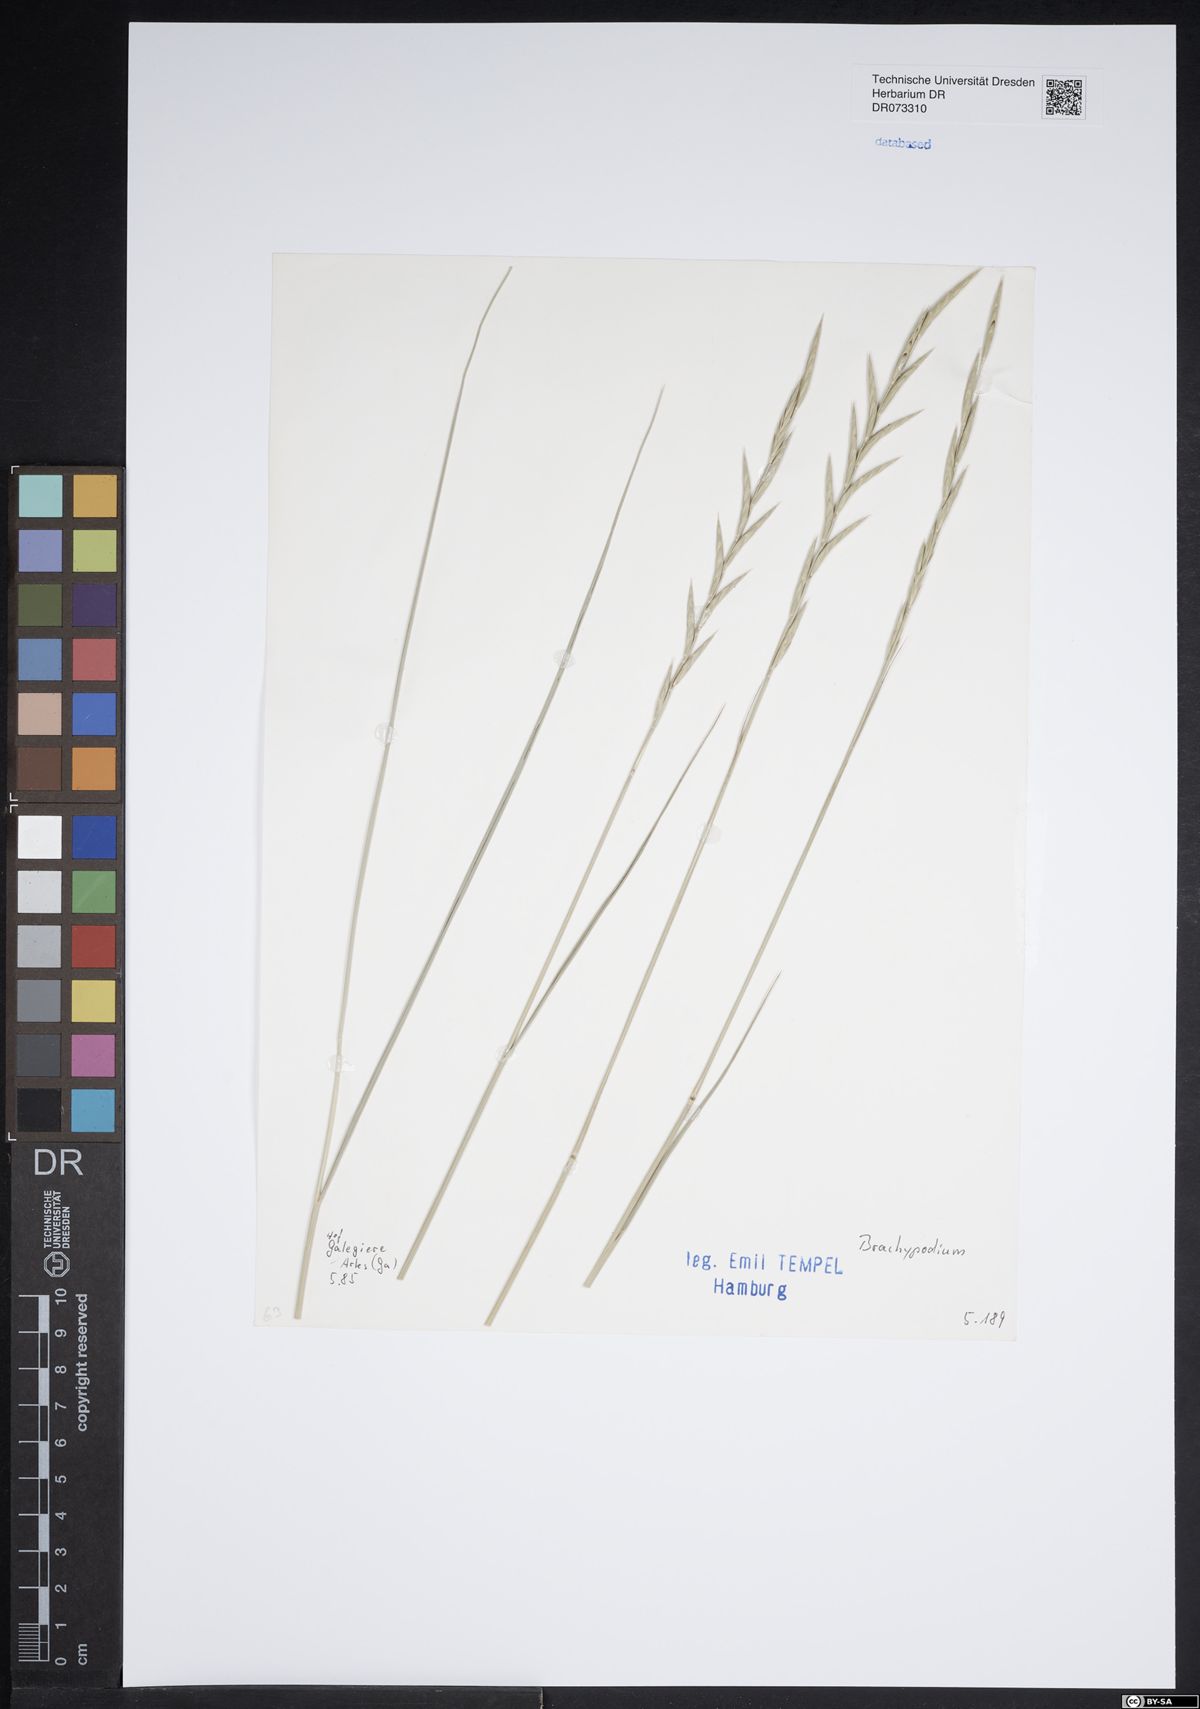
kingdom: Plantae
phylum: Tracheophyta
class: Liliopsida
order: Poales
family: Poaceae
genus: Brachypodium
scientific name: Brachypodium
